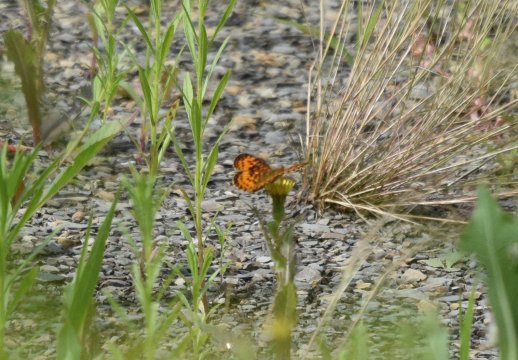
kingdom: Animalia
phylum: Arthropoda
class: Insecta
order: Lepidoptera
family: Nymphalidae
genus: Boloria
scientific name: Boloria selene
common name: Silver-bordered Fritillary
